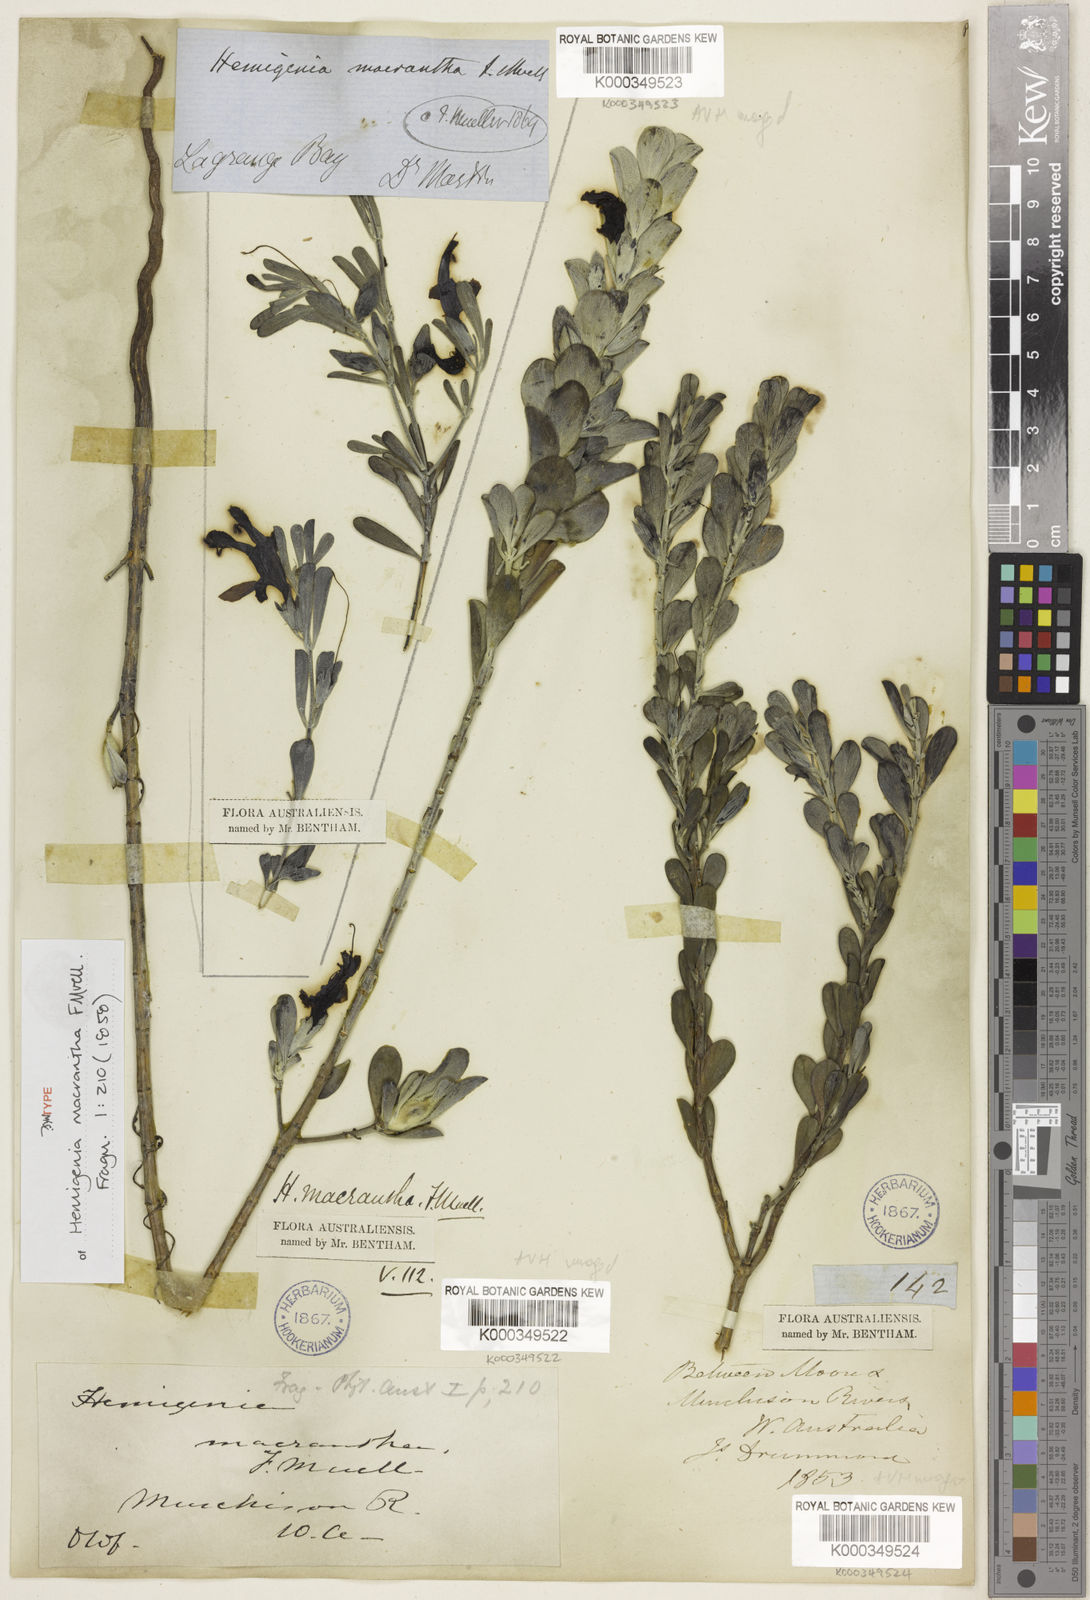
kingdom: Plantae
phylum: Tracheophyta
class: Magnoliopsida
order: Lamiales
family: Lamiaceae
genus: Hemigenia
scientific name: Hemigenia macrantha
